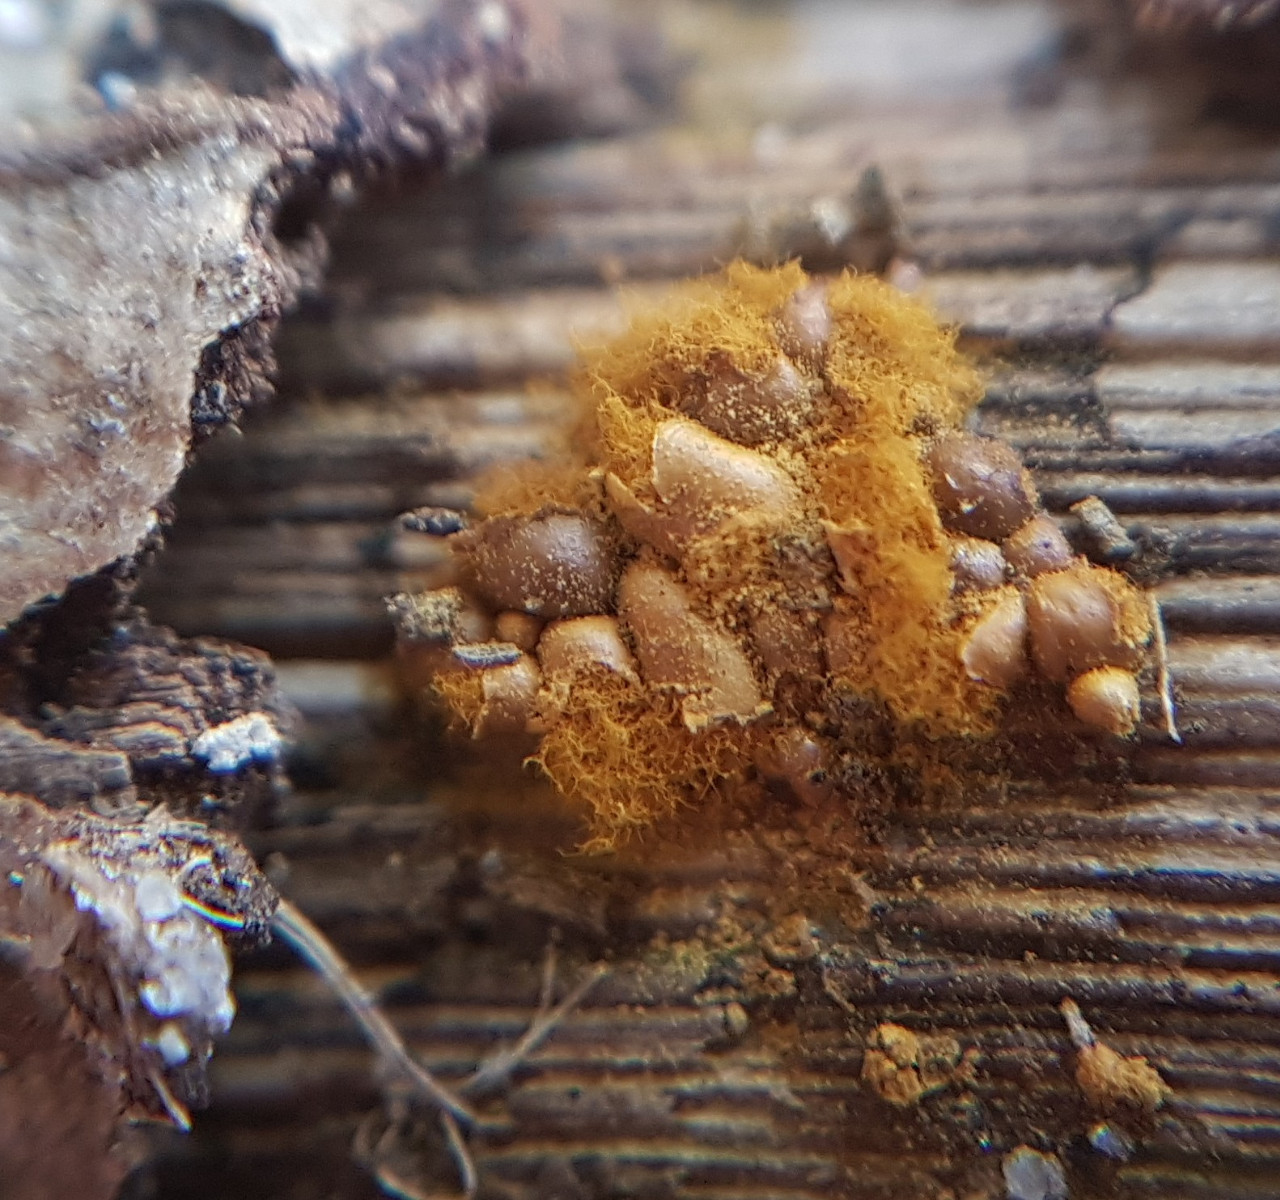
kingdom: Protozoa
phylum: Mycetozoa
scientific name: Mycetozoa
